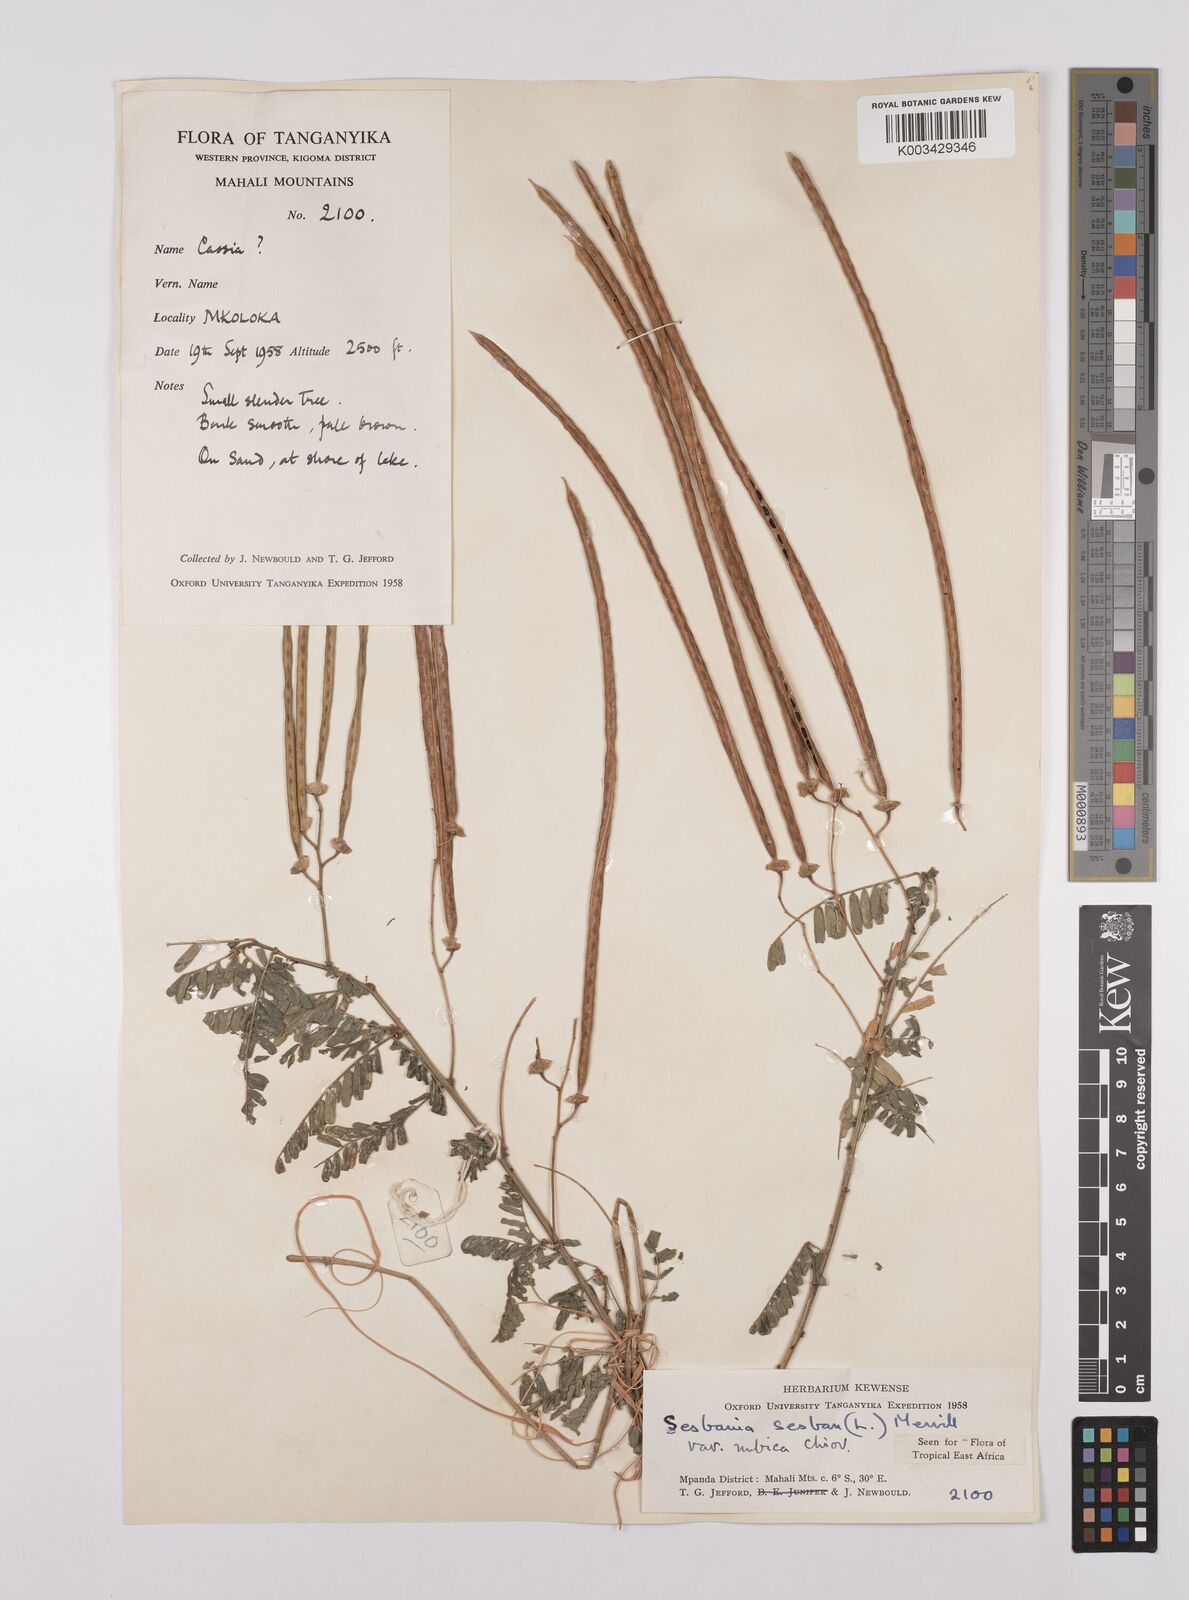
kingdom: Plantae
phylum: Tracheophyta
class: Magnoliopsida
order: Fabales
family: Fabaceae
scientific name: Fabaceae
